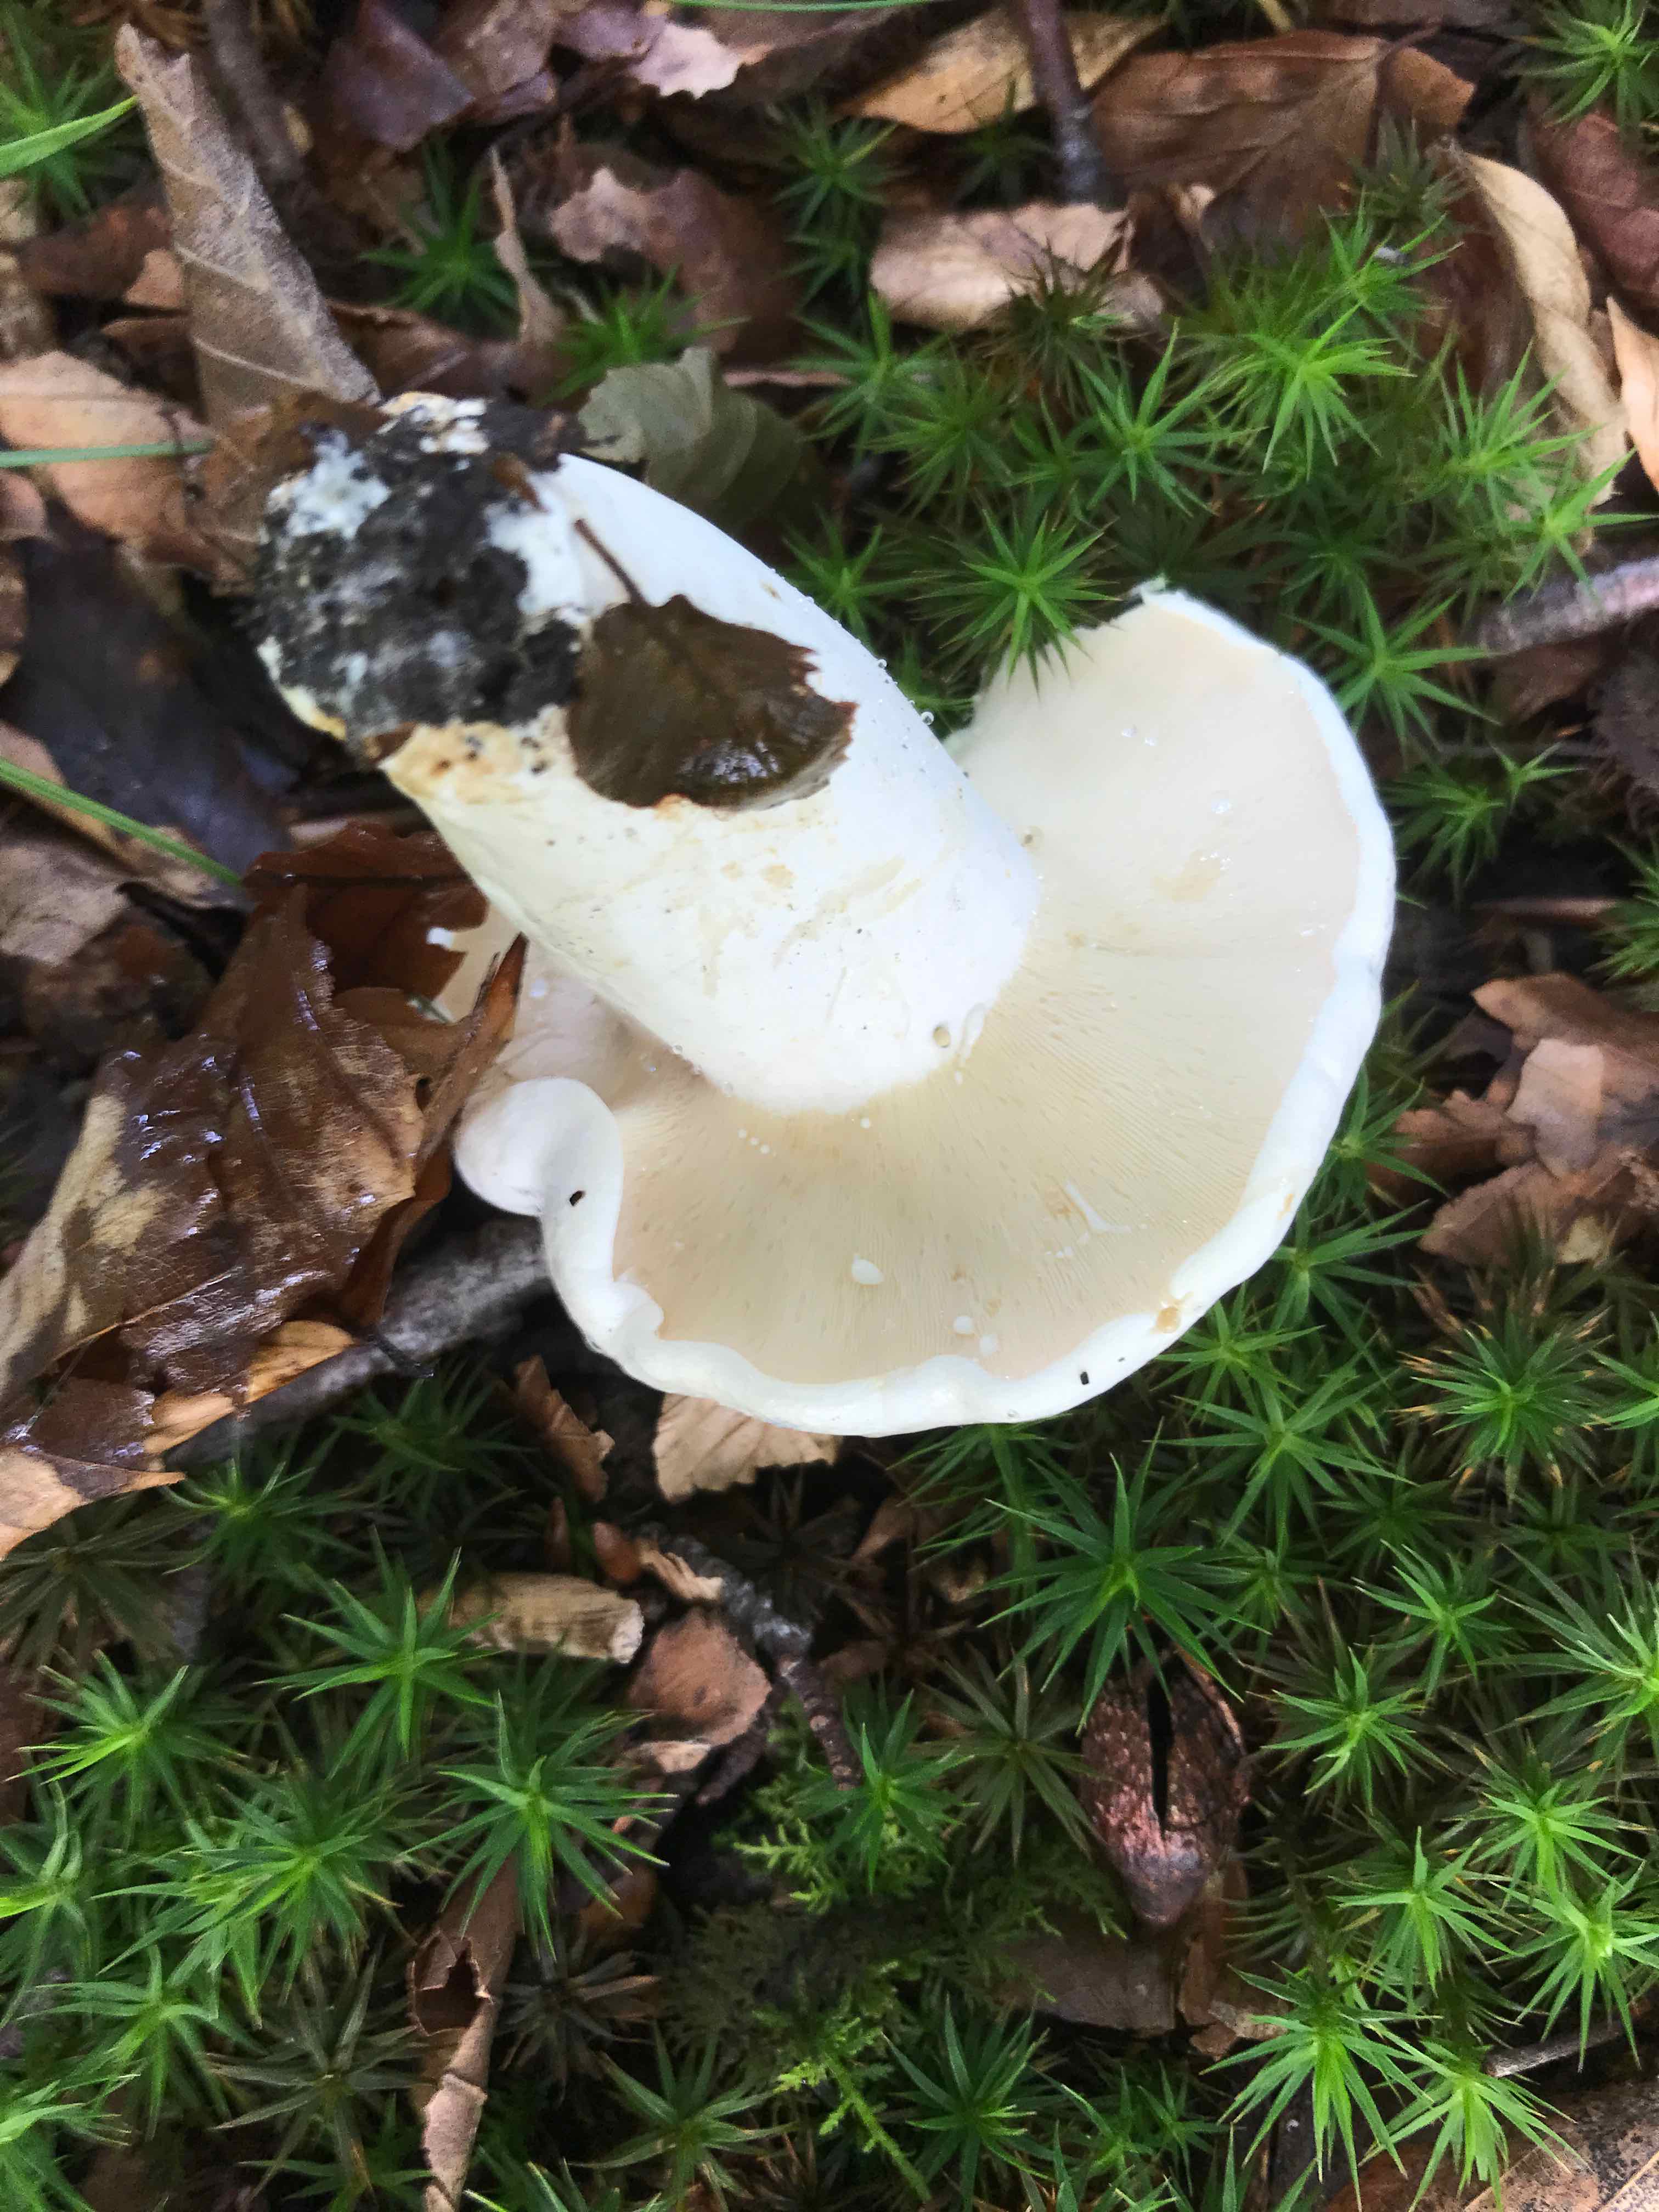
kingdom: Fungi
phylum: Basidiomycota
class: Agaricomycetes
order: Russulales
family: Russulaceae
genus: Lactifluus
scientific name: Lactifluus piperatus
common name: peber-mælkehat
